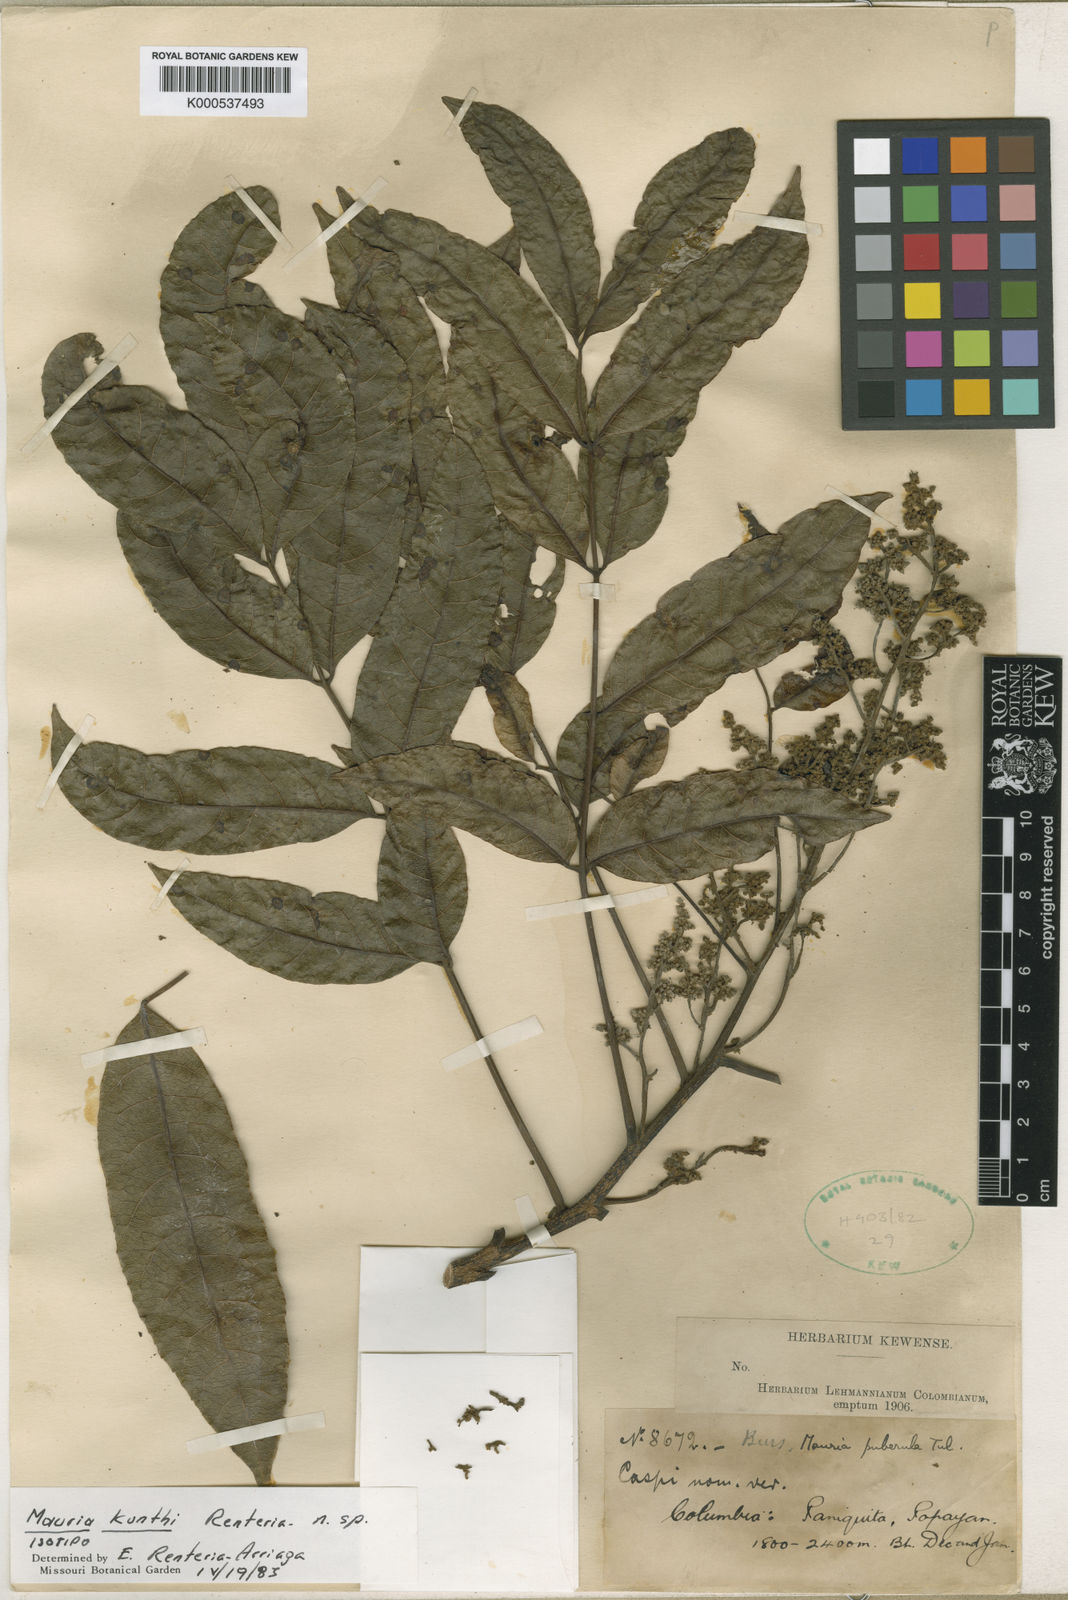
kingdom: Plantae
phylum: Tracheophyta
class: Magnoliopsida
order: Sapindales
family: Anacardiaceae
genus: Mauria
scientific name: Mauria kunthii
